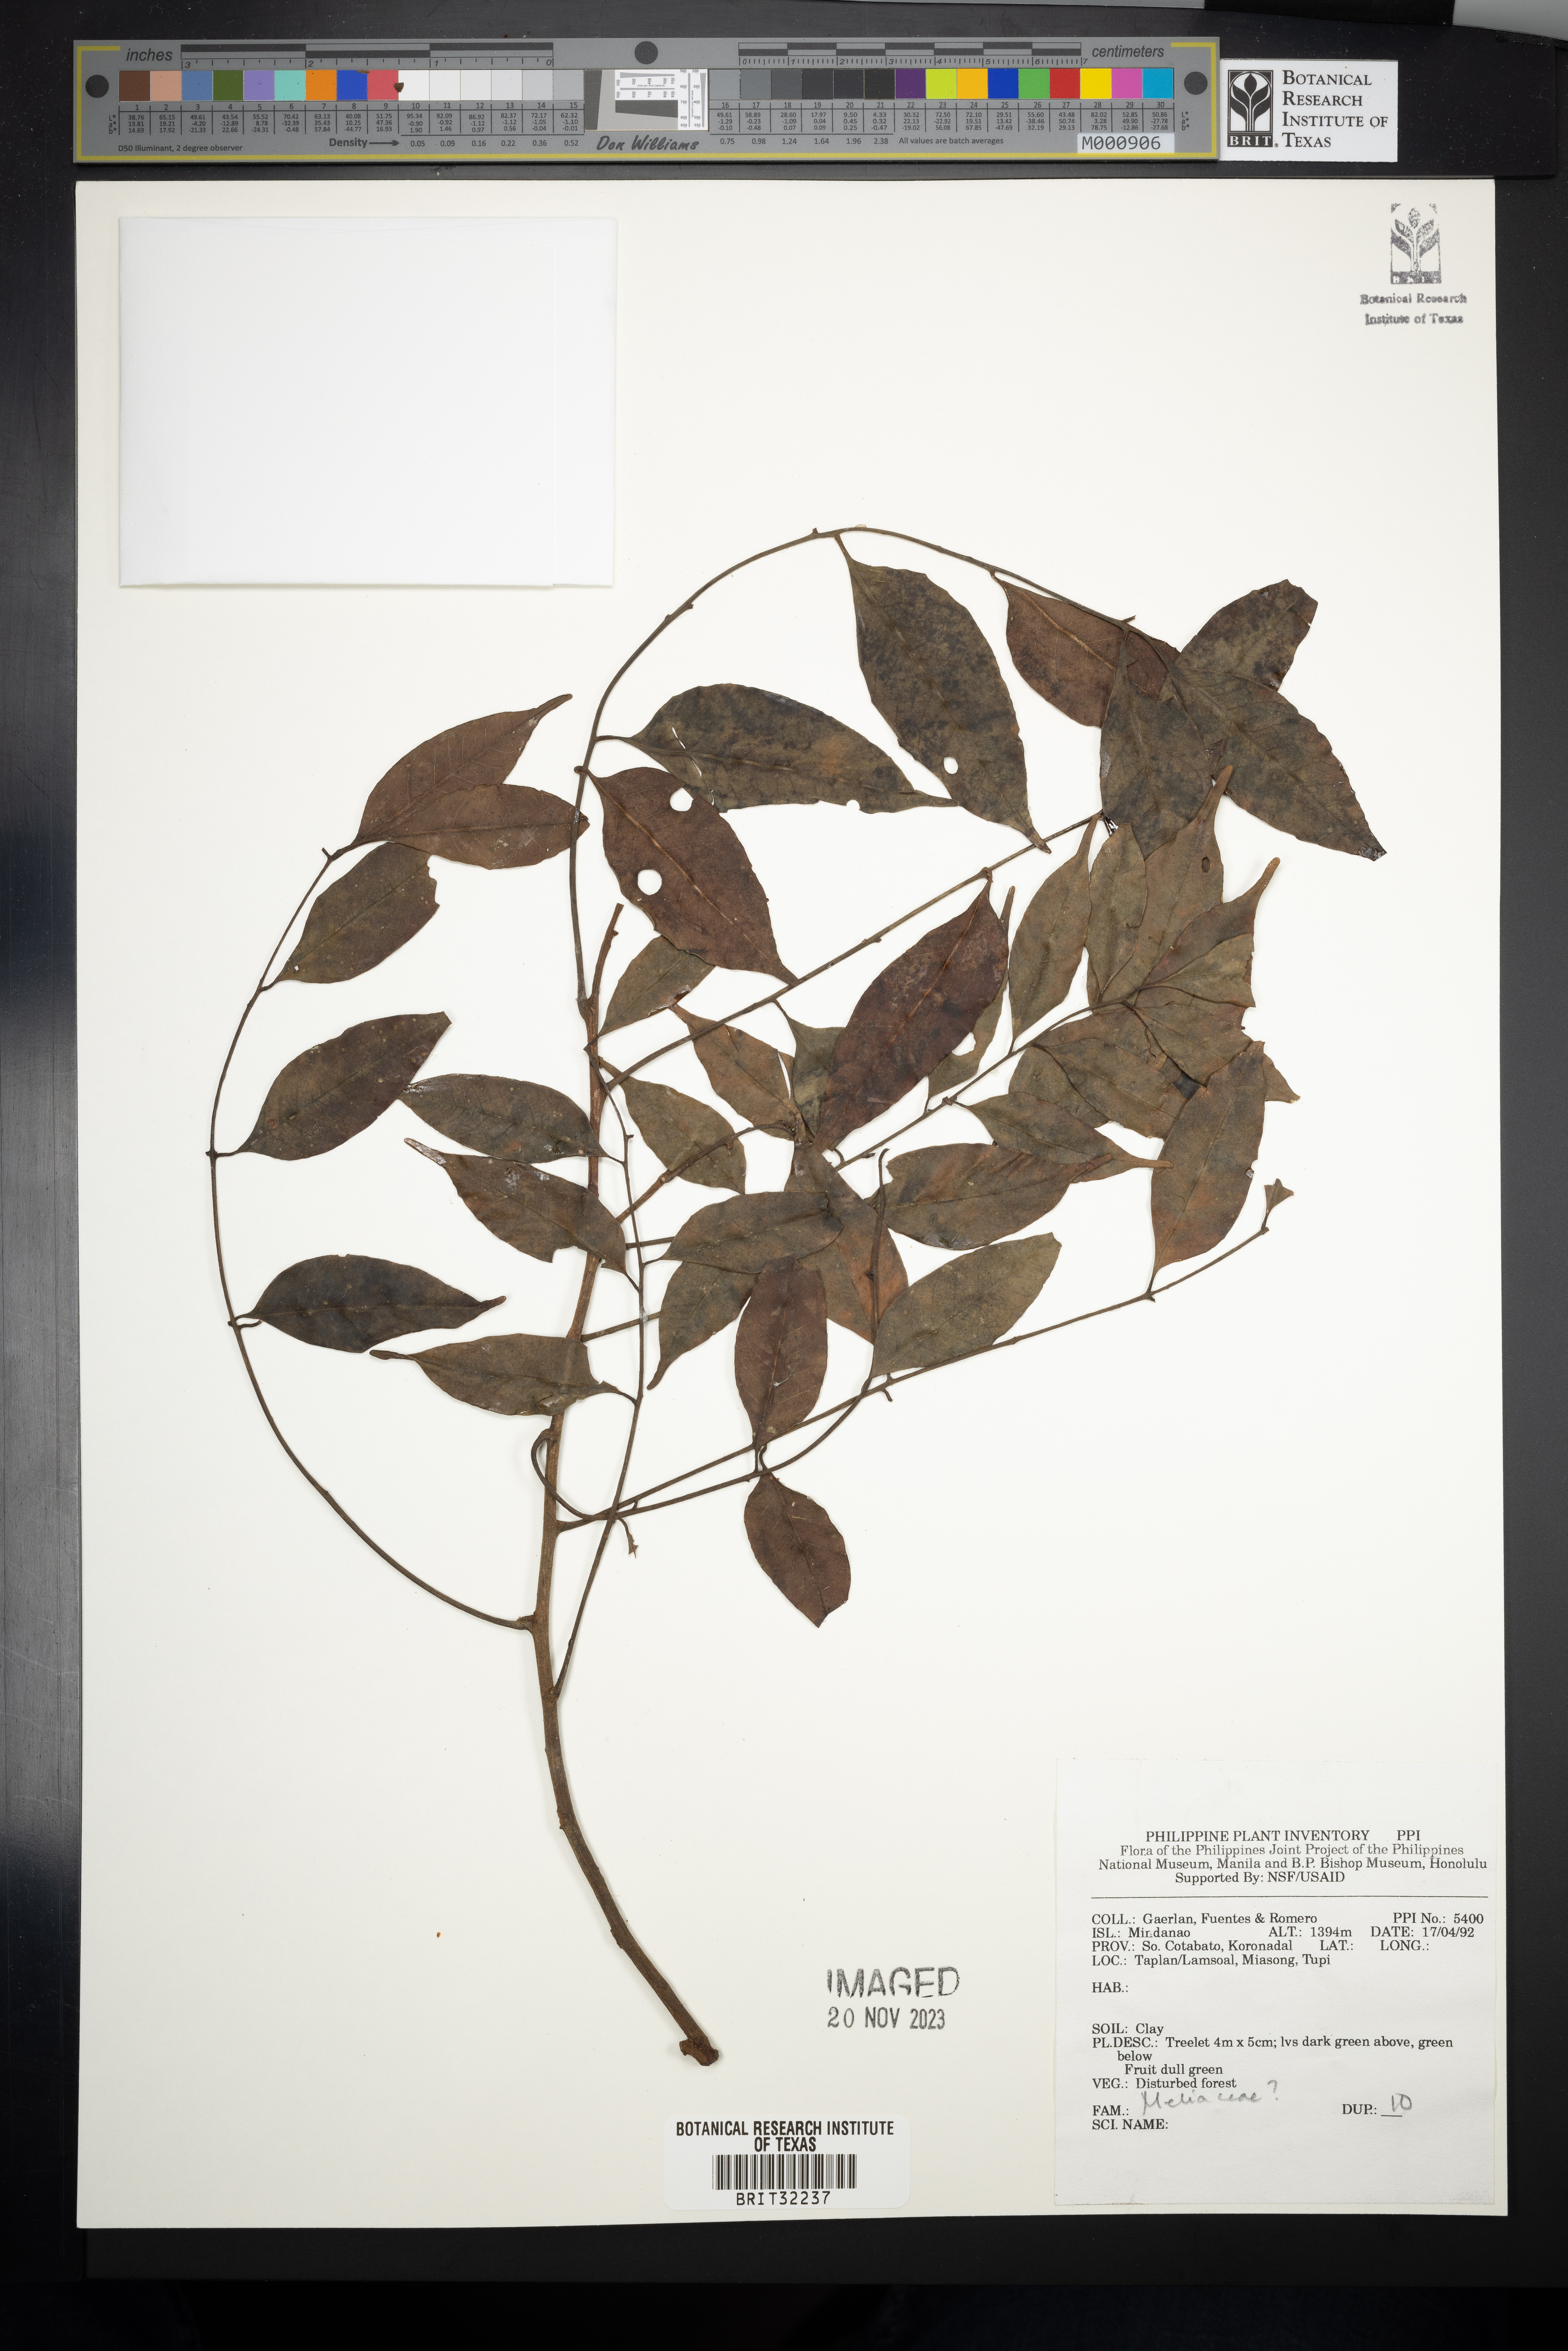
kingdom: Plantae
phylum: Tracheophyta
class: Magnoliopsida
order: Sapindales
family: Meliaceae
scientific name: Meliaceae
